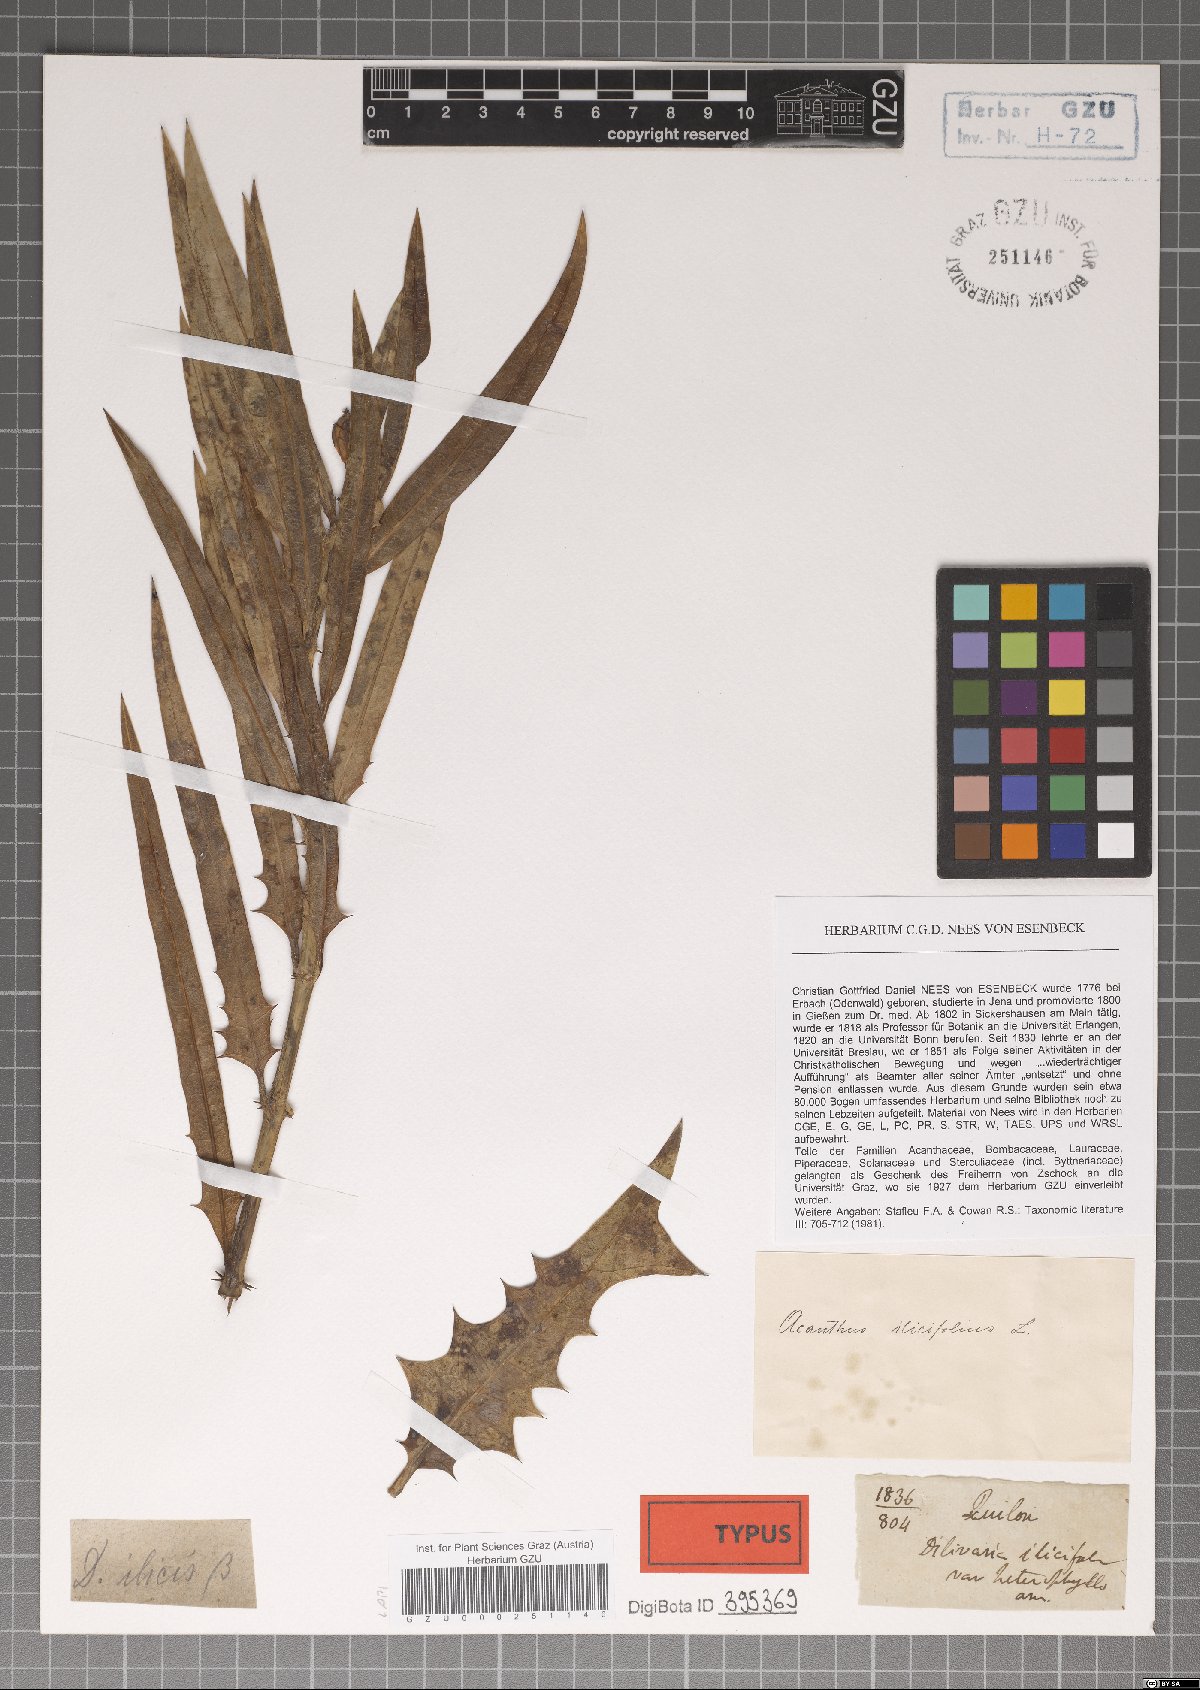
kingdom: Plantae
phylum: Tracheophyta
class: Magnoliopsida
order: Lamiales
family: Acanthaceae
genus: Acanthus
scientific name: Acanthus ilicifolius
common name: Holy mangrove
